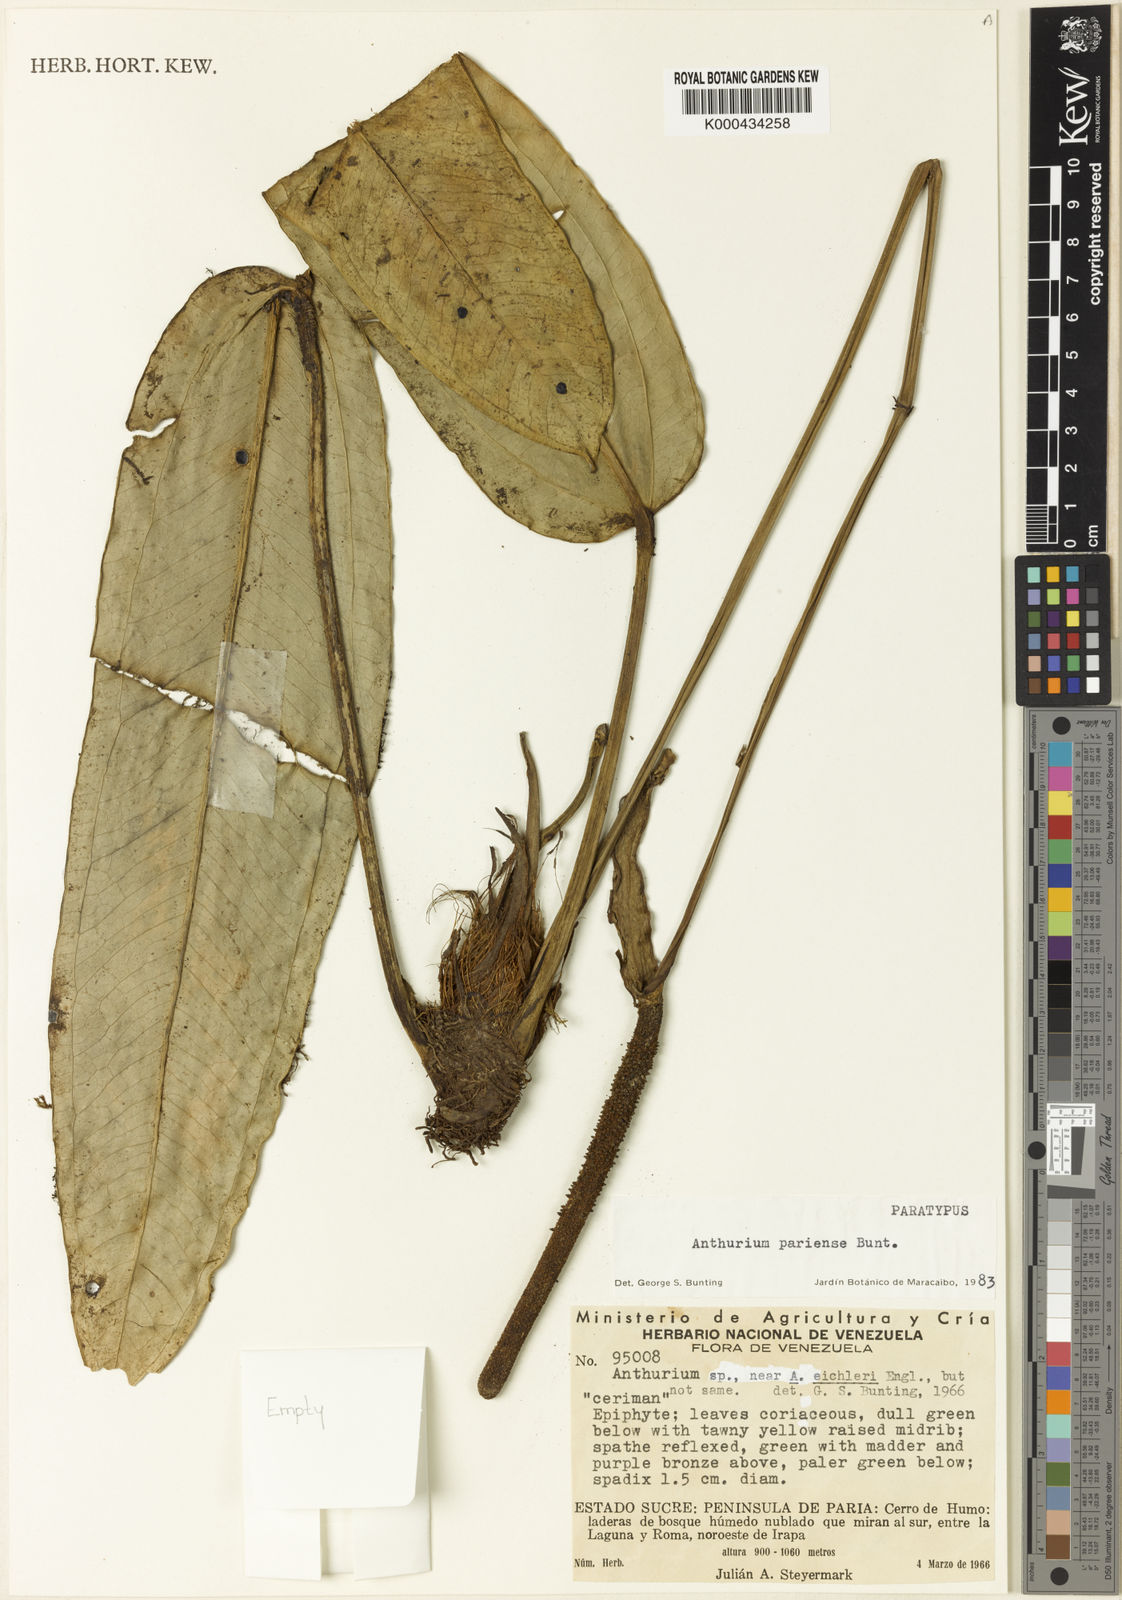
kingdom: Plantae
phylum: Tracheophyta
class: Liliopsida
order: Alismatales
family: Araceae
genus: Anthurium
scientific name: Anthurium pariense
